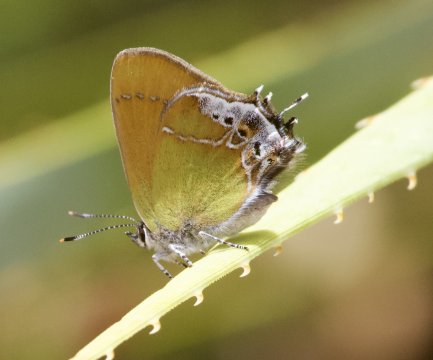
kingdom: Animalia
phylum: Arthropoda
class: Insecta
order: Lepidoptera
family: Lycaenidae
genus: Xamia
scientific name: Xamia xami
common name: Xami Hairstreak
